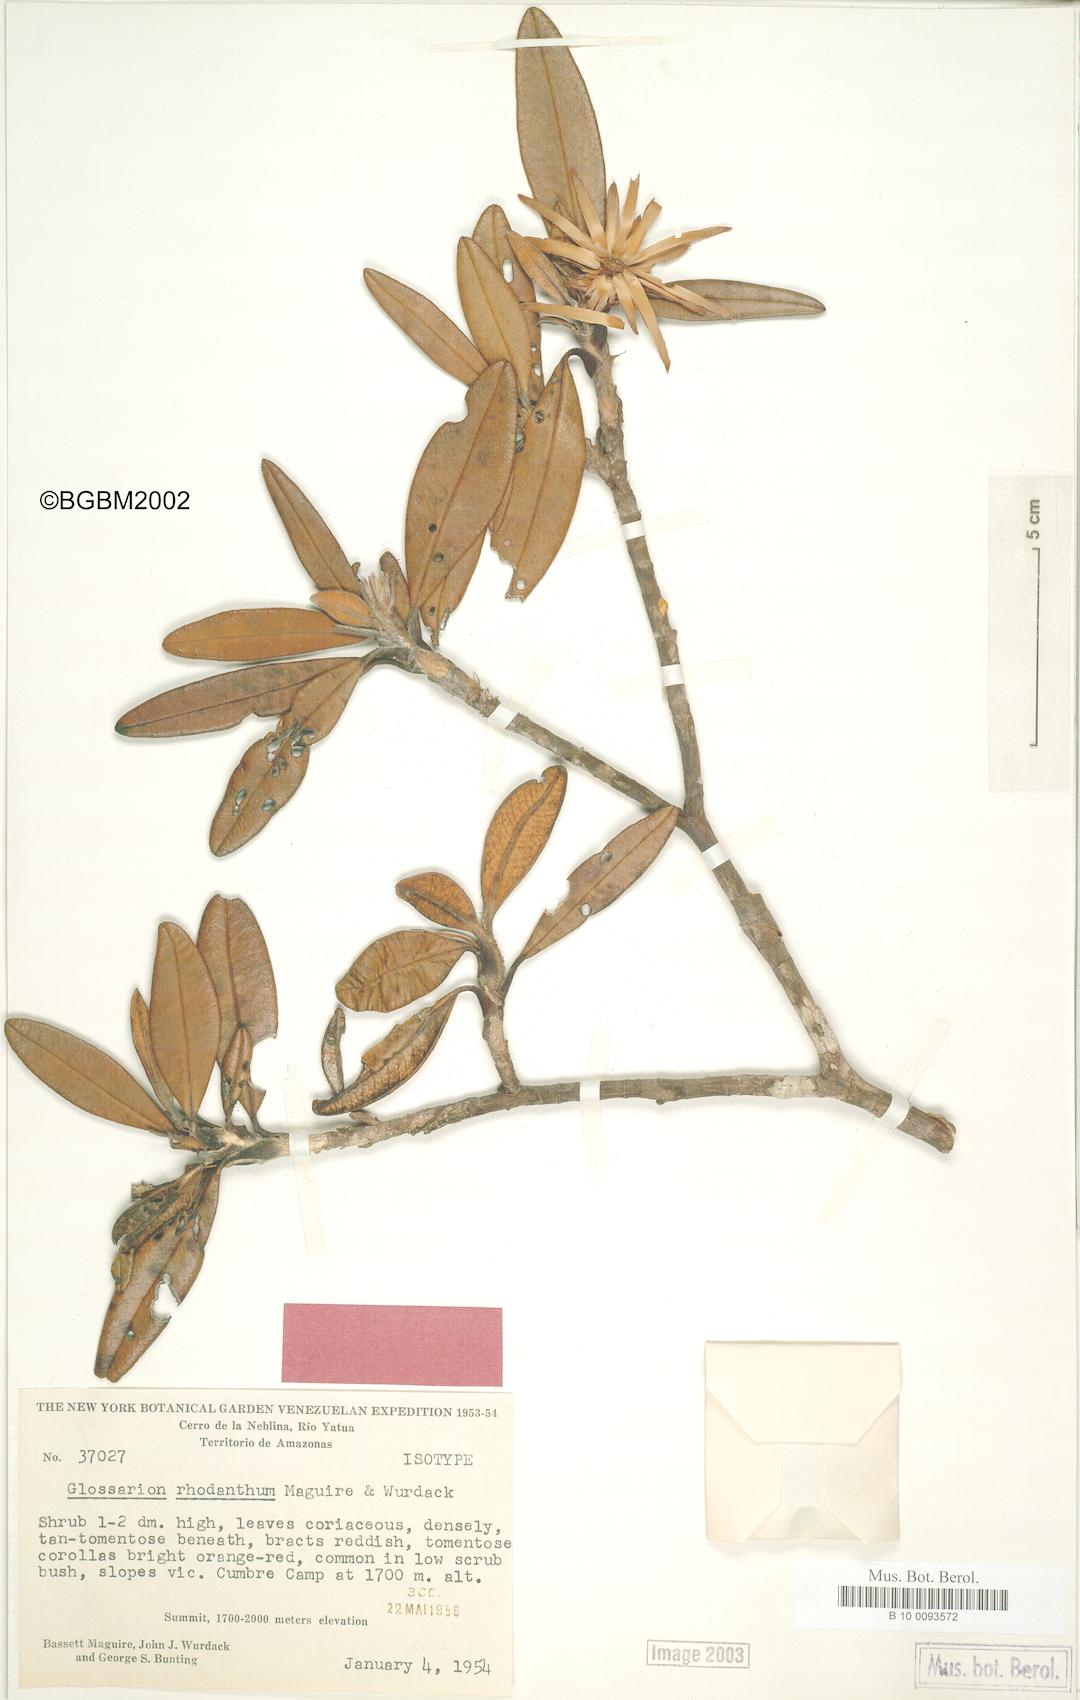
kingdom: Plantae
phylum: Tracheophyta
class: Magnoliopsida
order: Asterales
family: Asteraceae
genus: Glossarion
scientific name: Glossarion rhodanthum
